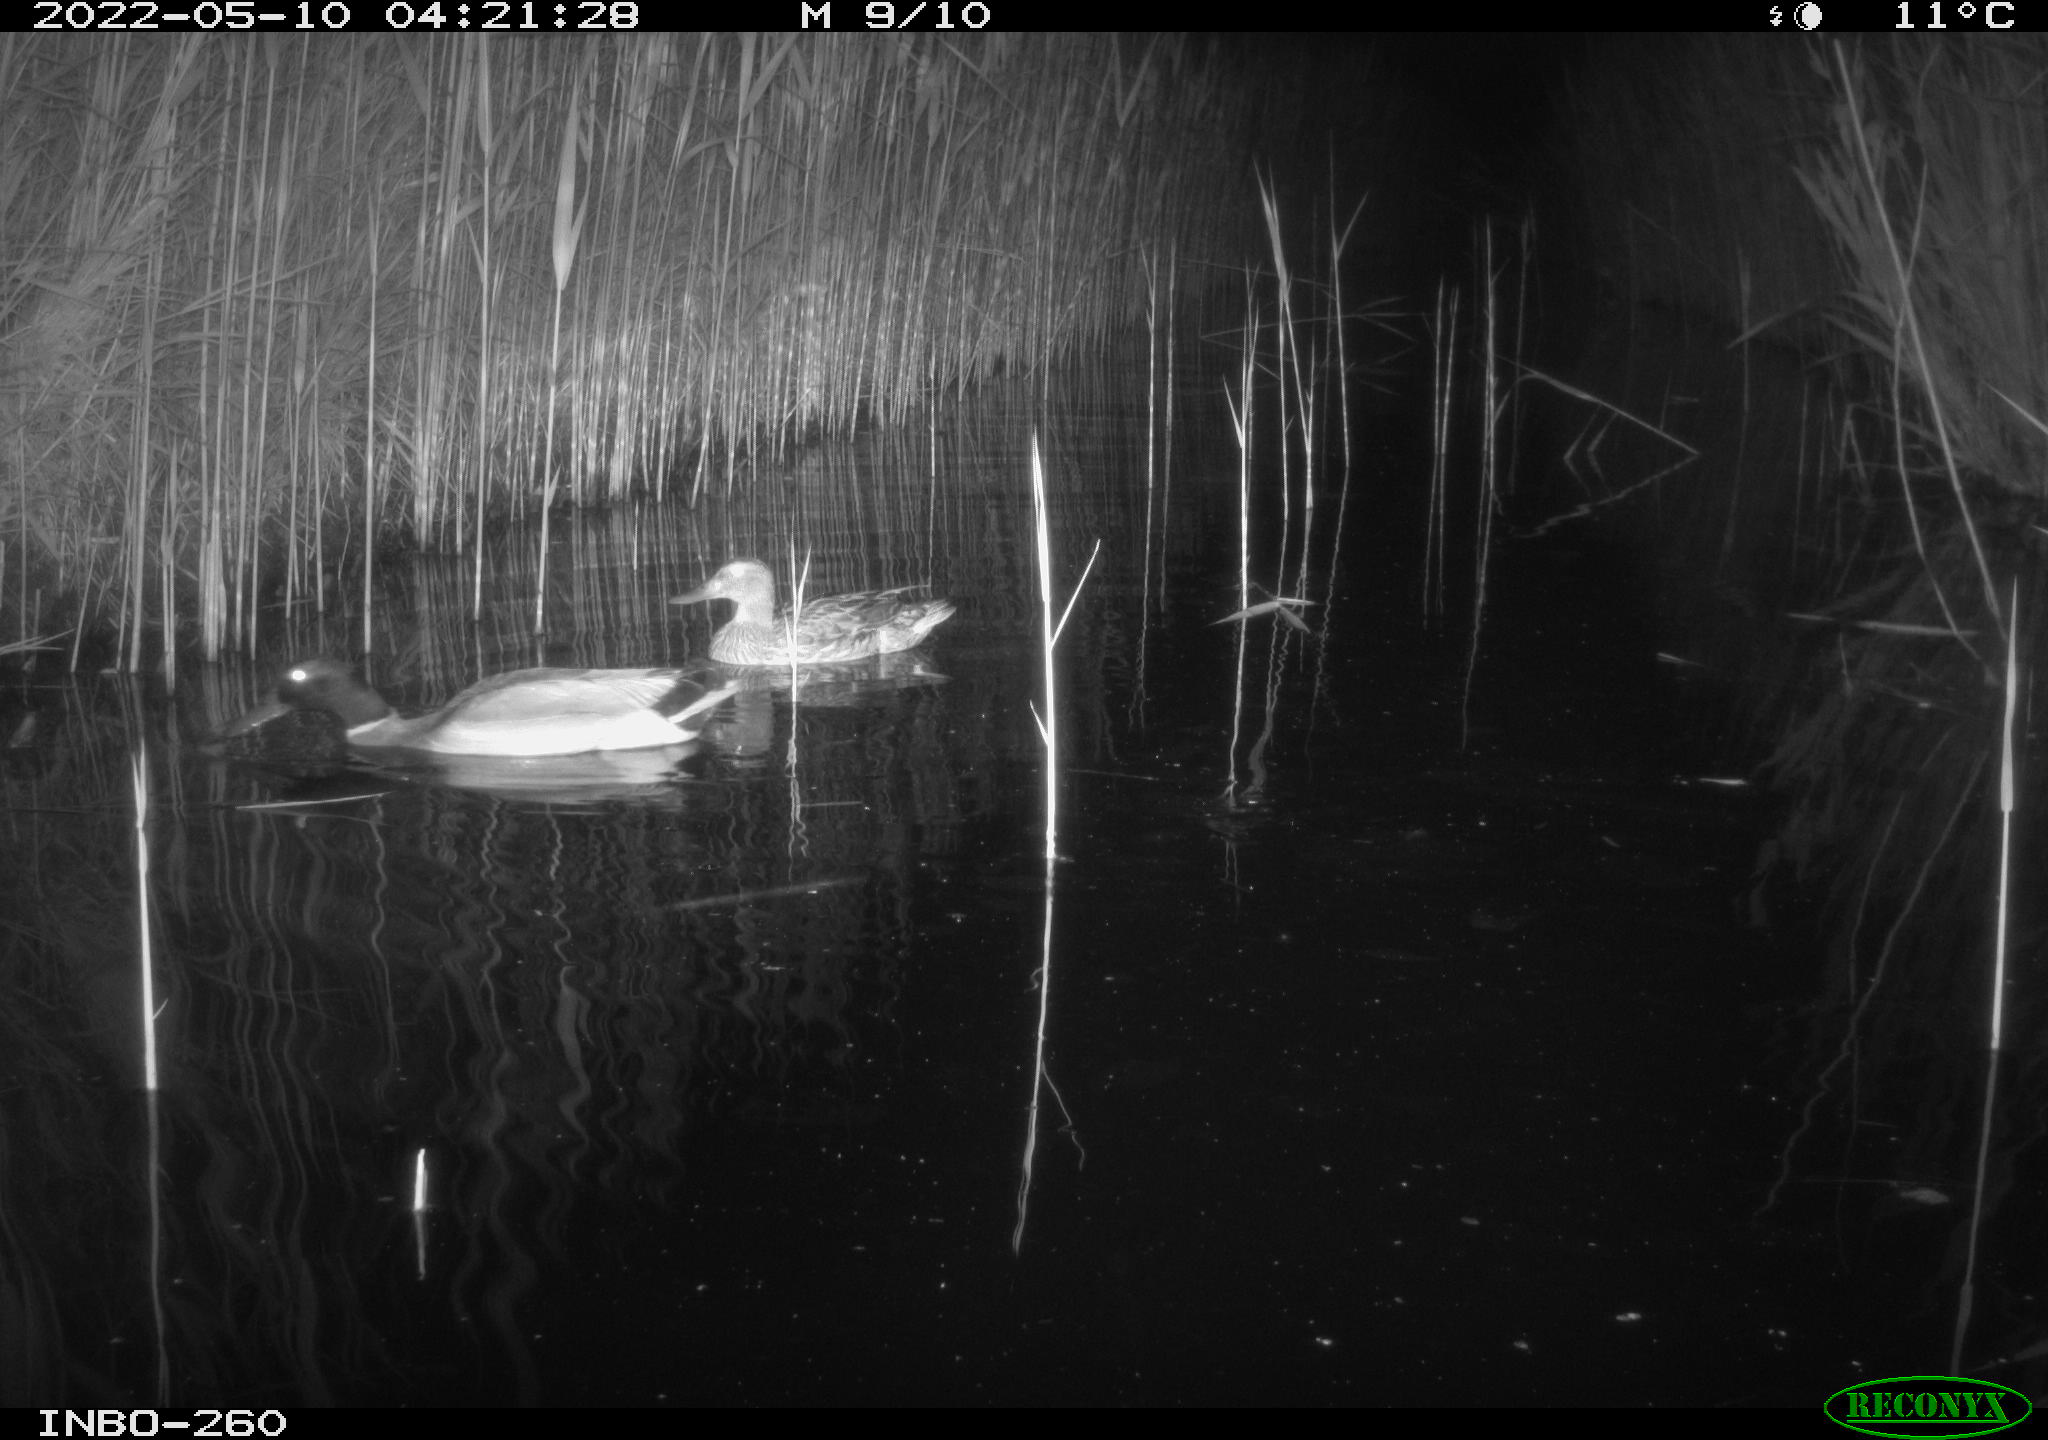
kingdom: Animalia
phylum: Chordata
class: Aves
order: Anseriformes
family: Anatidae
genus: Anas
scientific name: Anas platyrhynchos
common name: Mallard
